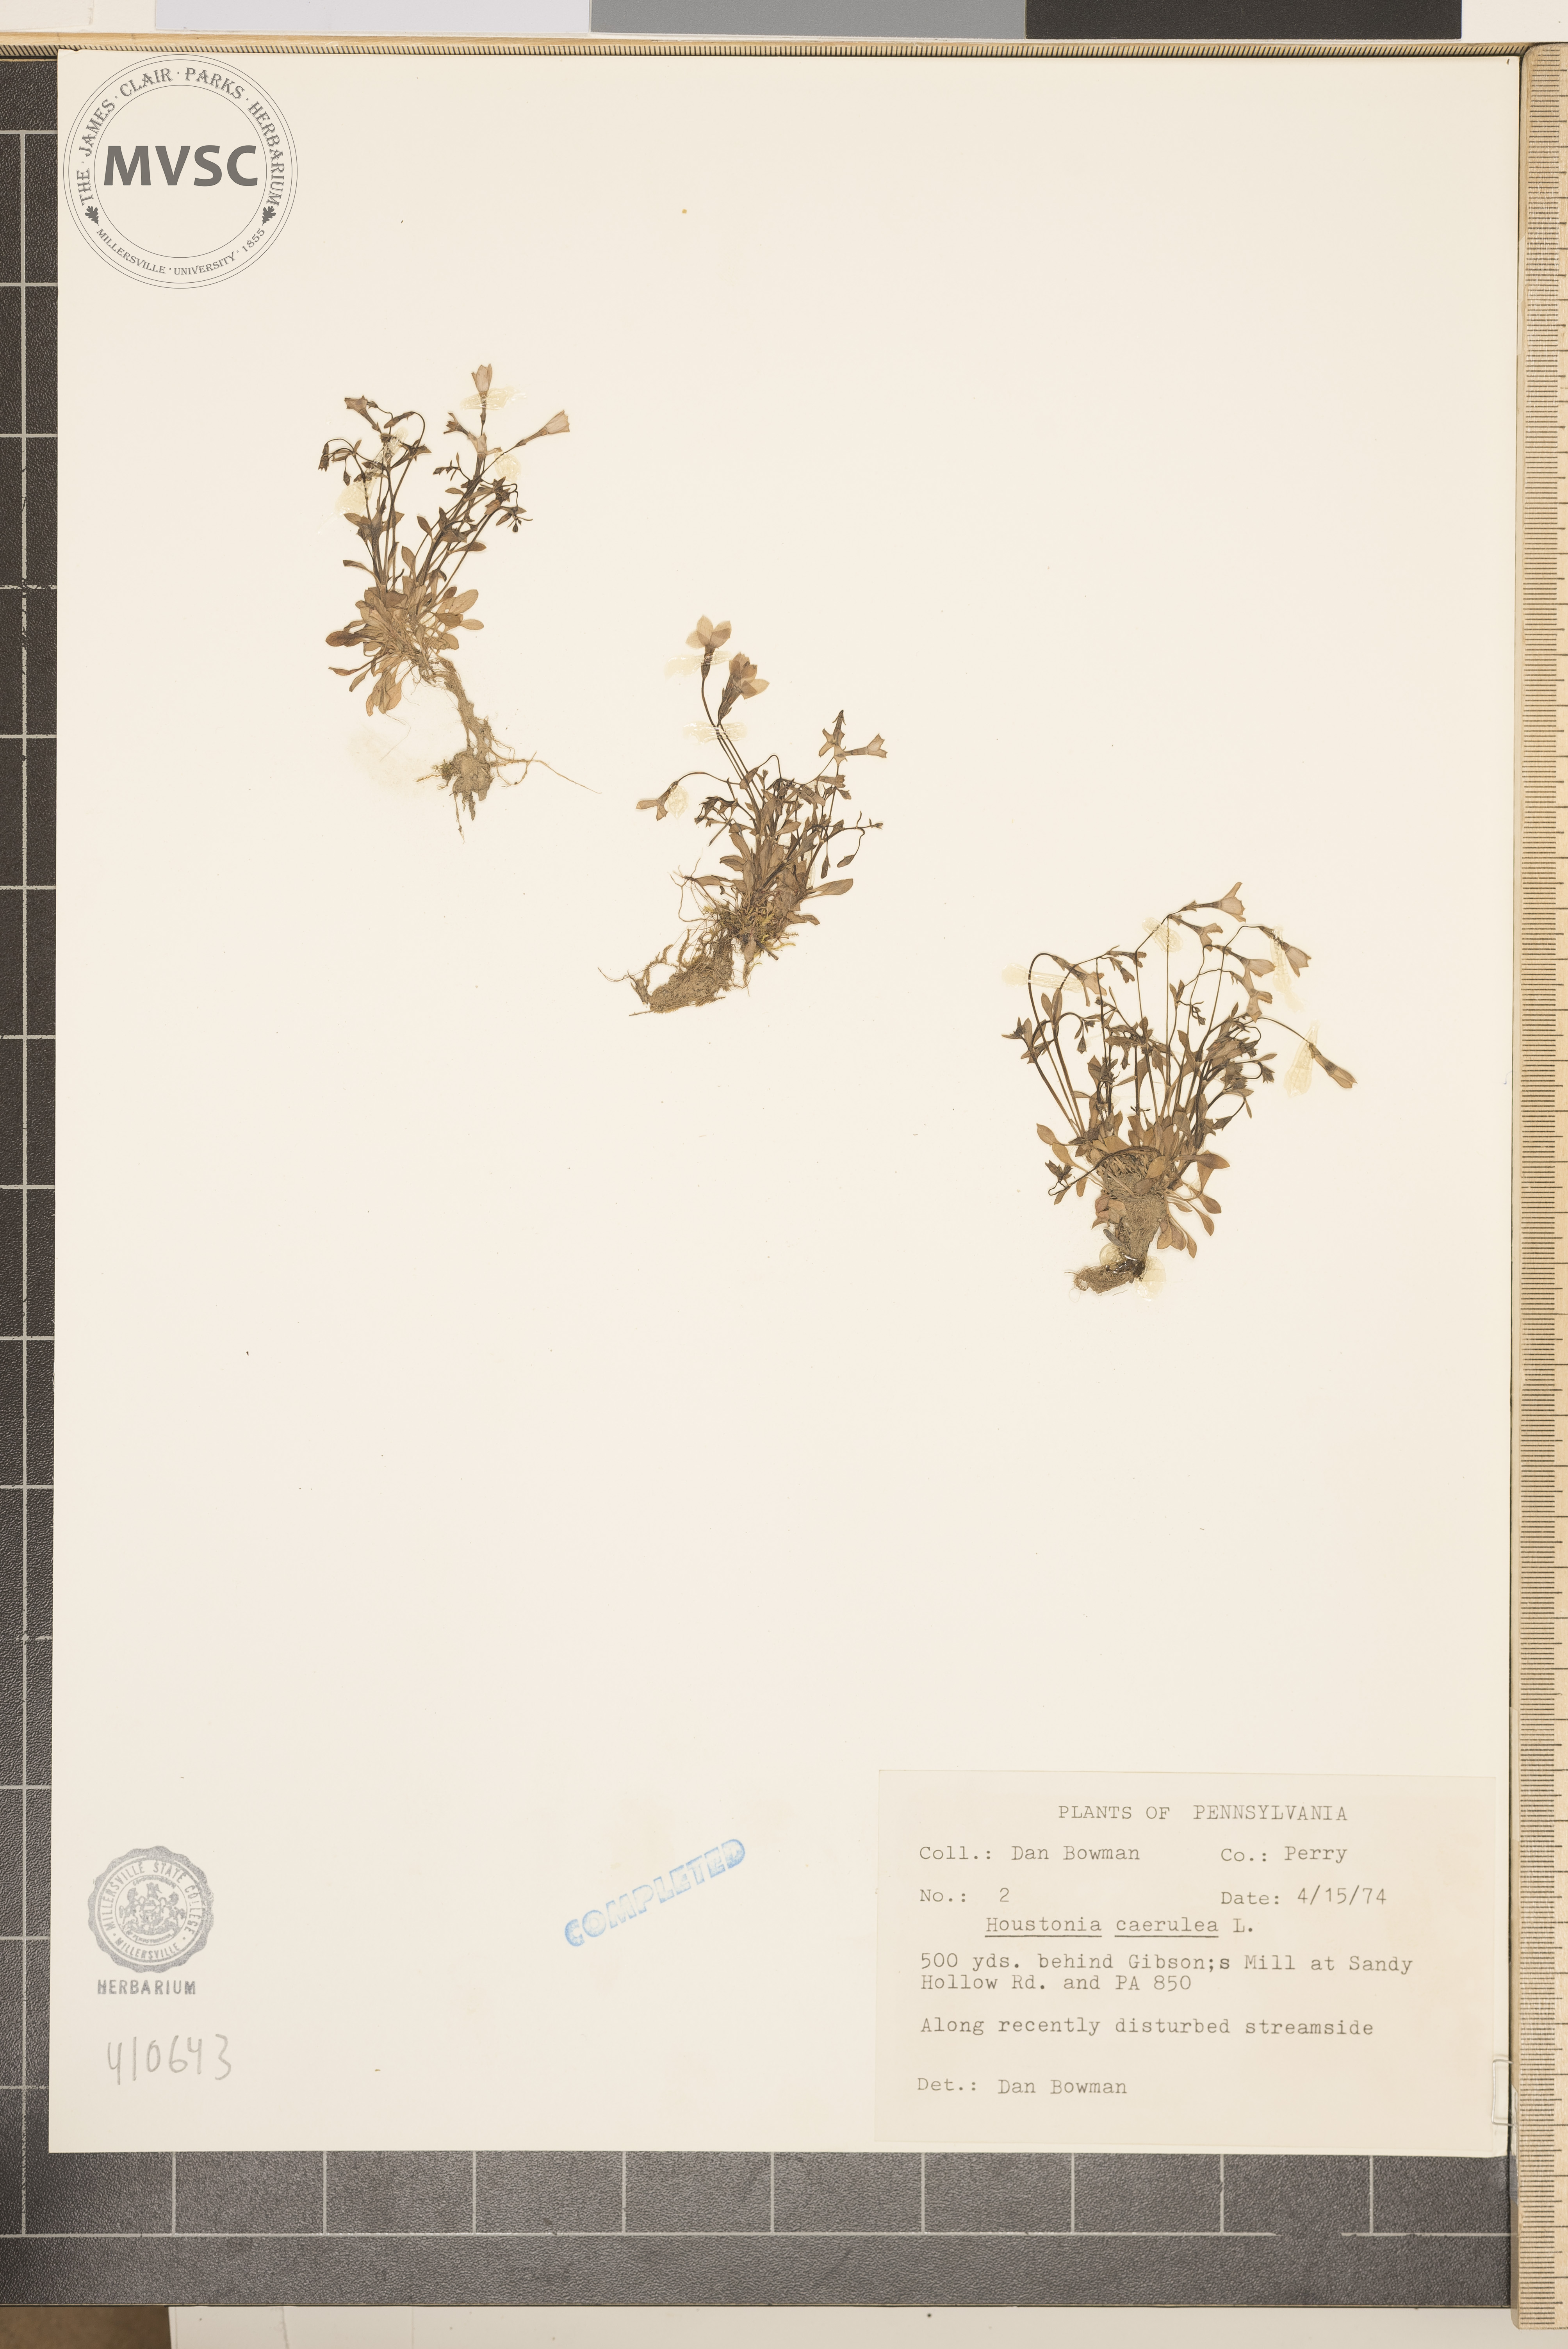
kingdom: Plantae
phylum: Tracheophyta
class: Magnoliopsida
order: Gentianales
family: Rubiaceae
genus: Houstonia
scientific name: Houstonia caerulea
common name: Bluets
